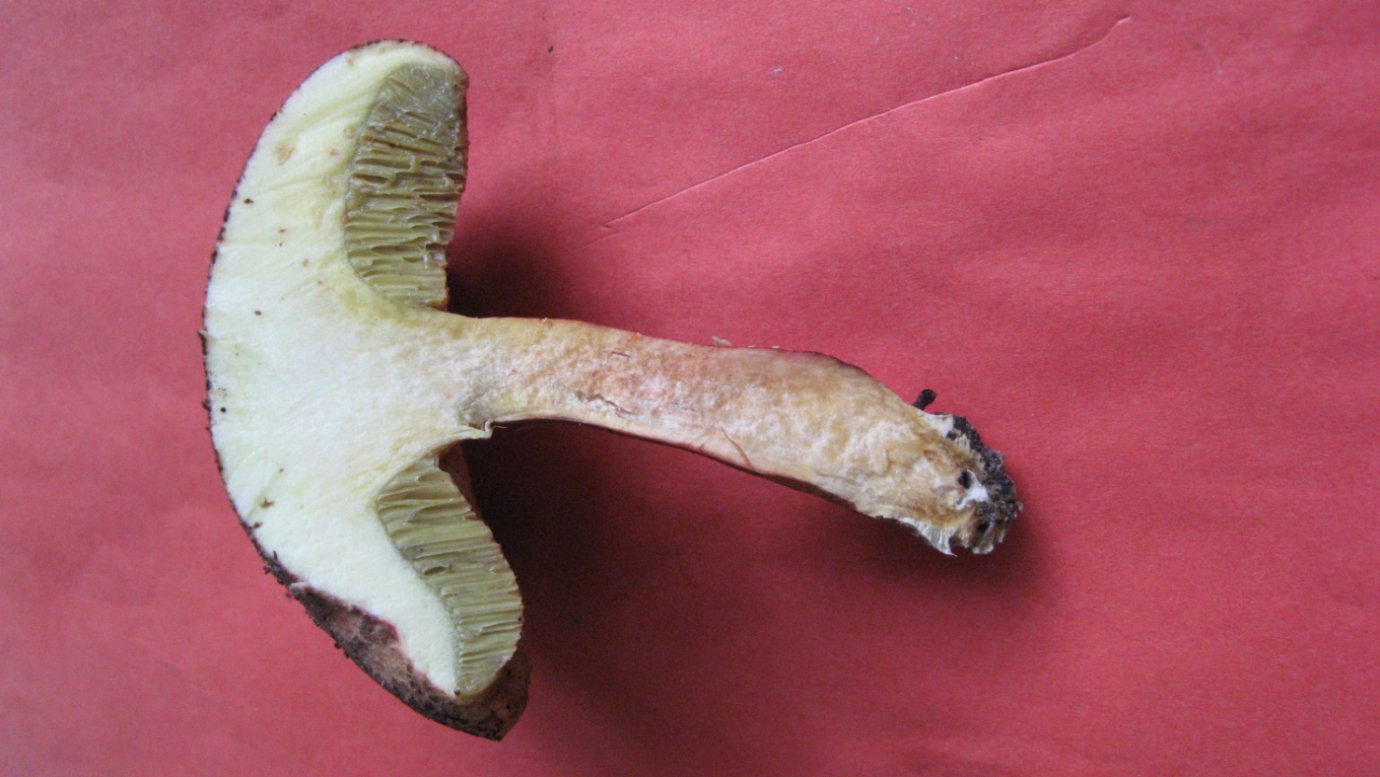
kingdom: Fungi
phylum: Basidiomycota
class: Agaricomycetes
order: Boletales
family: Boletaceae
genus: Xerocomellus
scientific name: Xerocomellus chrysenteron
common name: rødsprukken rørhat
